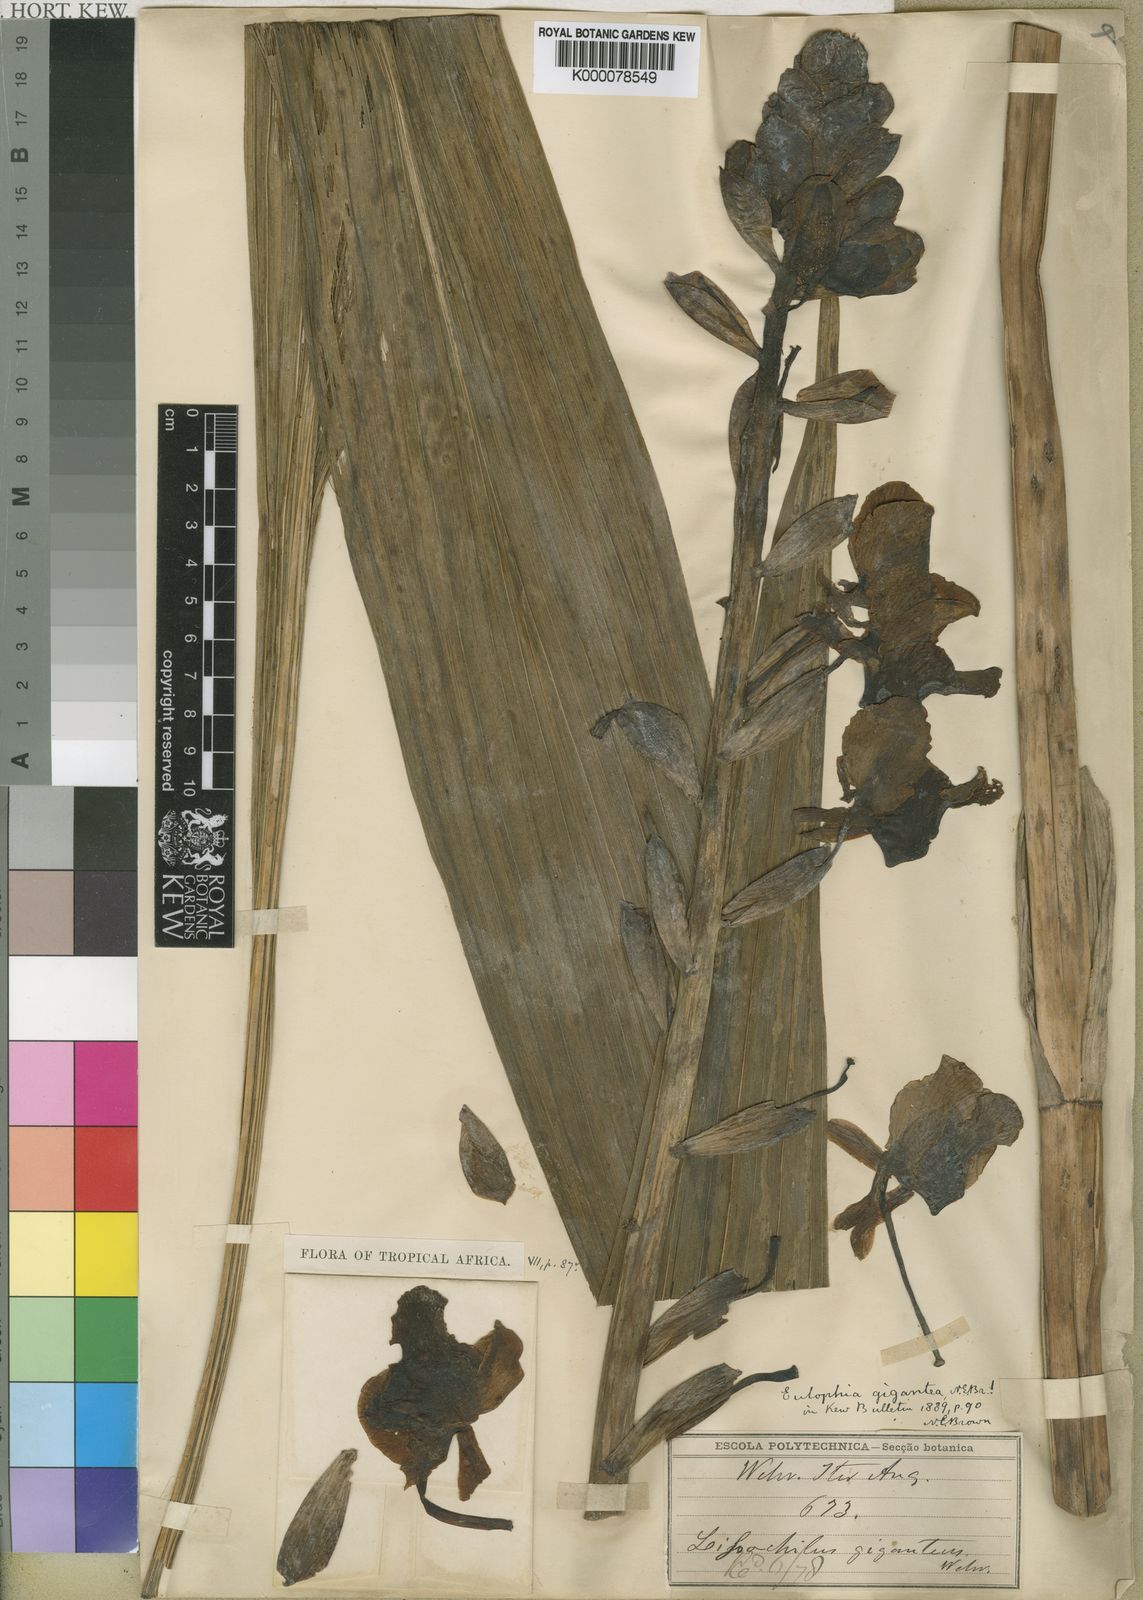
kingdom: Plantae
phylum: Tracheophyta
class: Liliopsida
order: Asparagales
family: Orchidaceae
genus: Eulophia
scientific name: Eulophia bouliawongo
